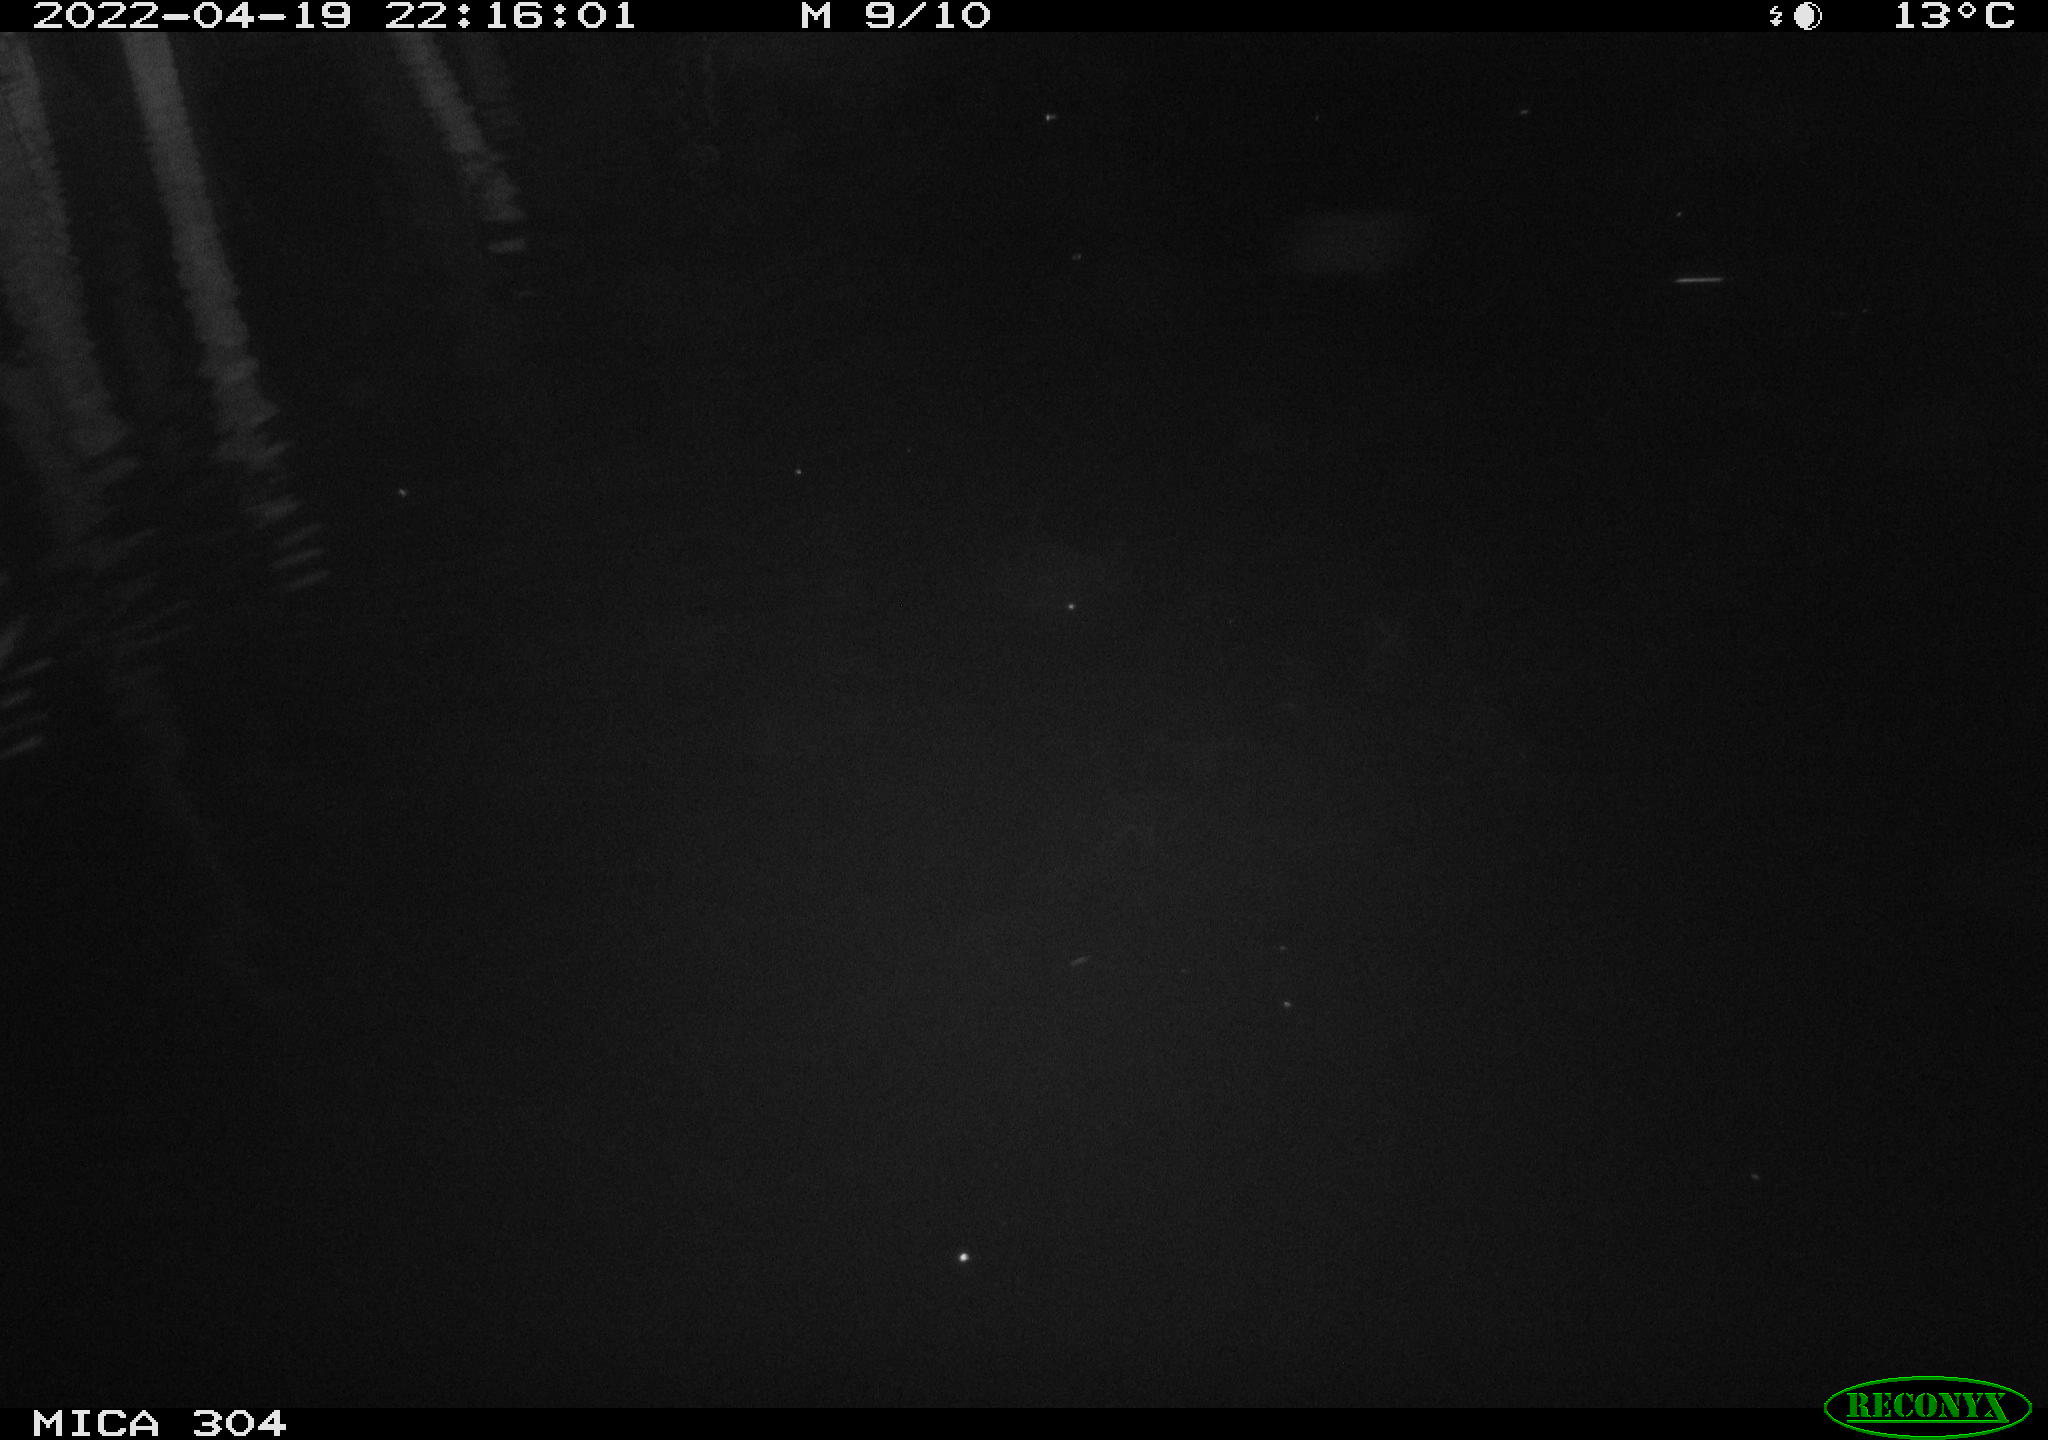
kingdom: Animalia
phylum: Chordata
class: Mammalia
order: Rodentia
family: Muridae
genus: Rattus
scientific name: Rattus norvegicus
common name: Brown rat
